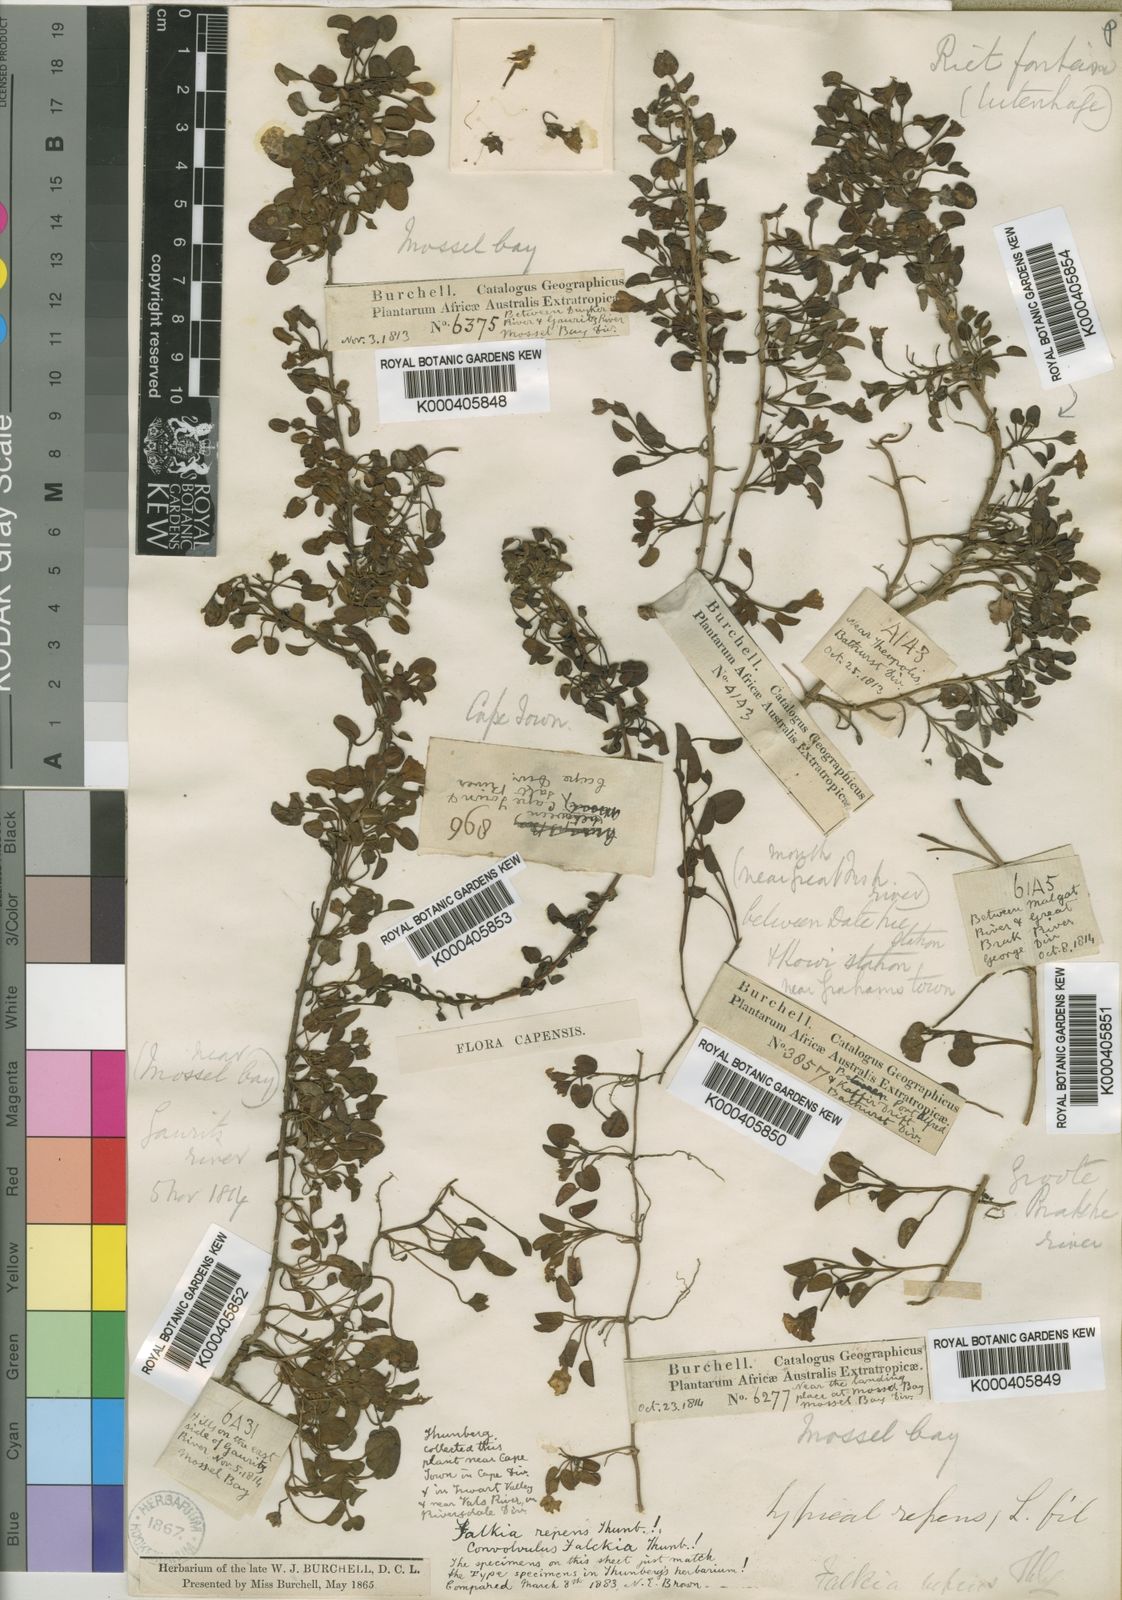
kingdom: Plantae
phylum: Tracheophyta
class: Magnoliopsida
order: Solanales
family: Convolvulaceae
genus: Falkia
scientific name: Falkia repens
